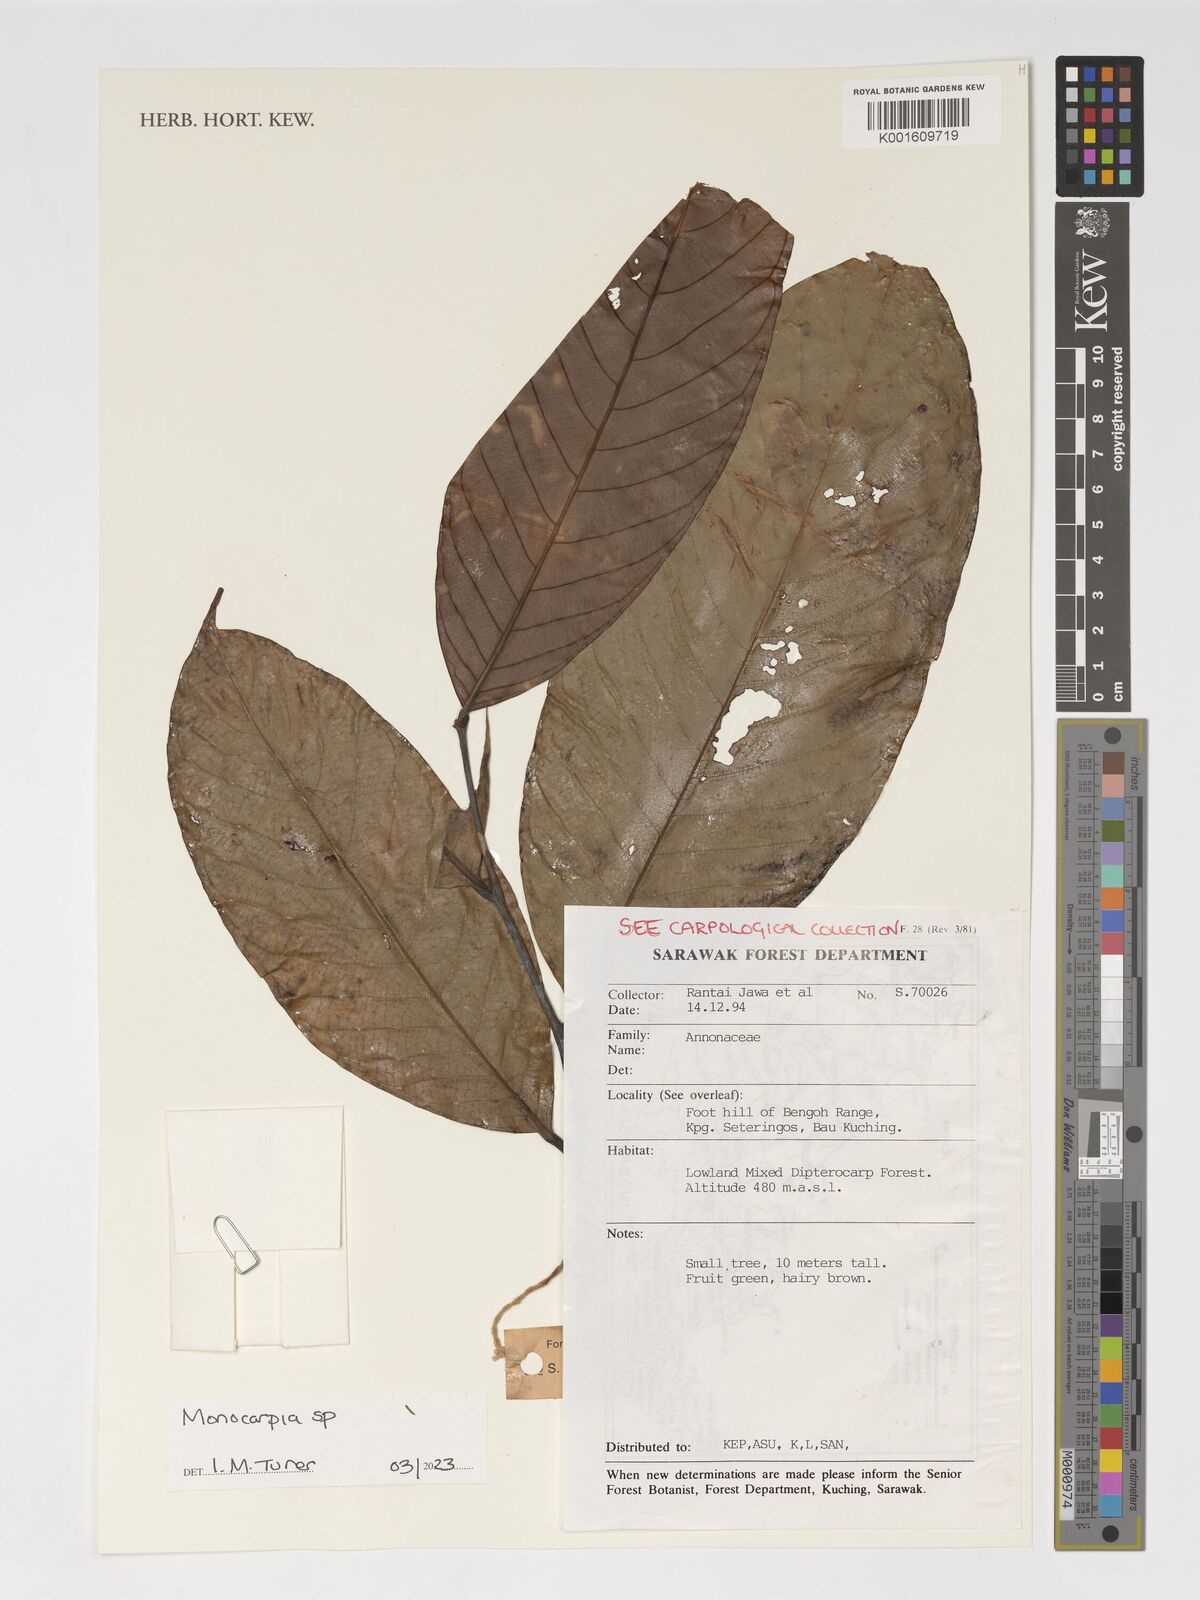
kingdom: Plantae
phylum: Tracheophyta
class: Magnoliopsida
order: Magnoliales
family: Annonaceae
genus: Monocarpia
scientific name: Monocarpia
